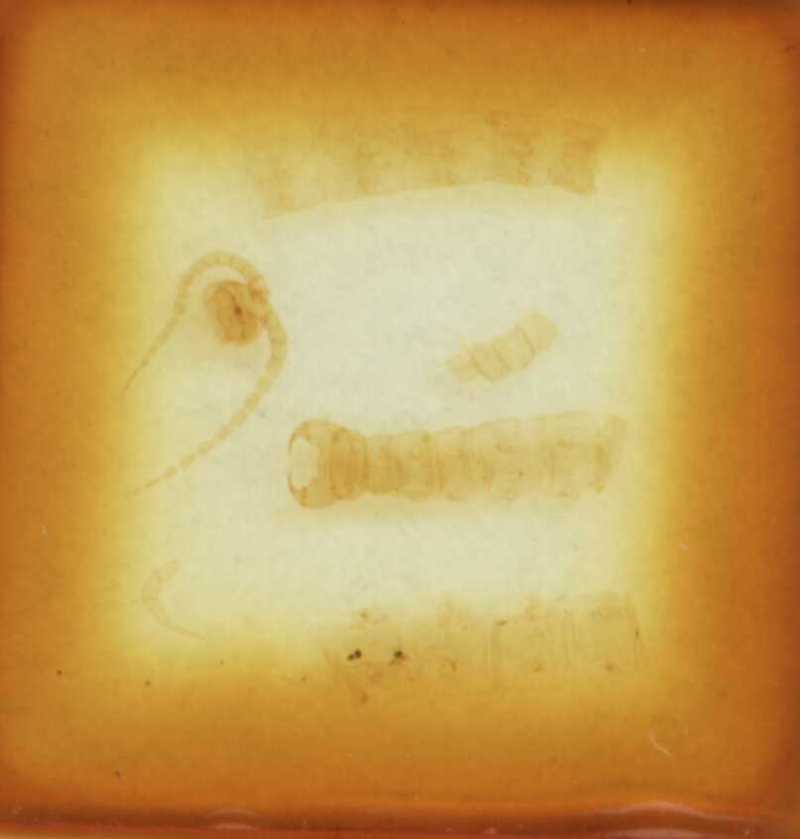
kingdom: Animalia
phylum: Arthropoda
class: Chilopoda
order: Scolopendromorpha
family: Cryptopidae
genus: Cryptops
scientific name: Cryptops garganensis
